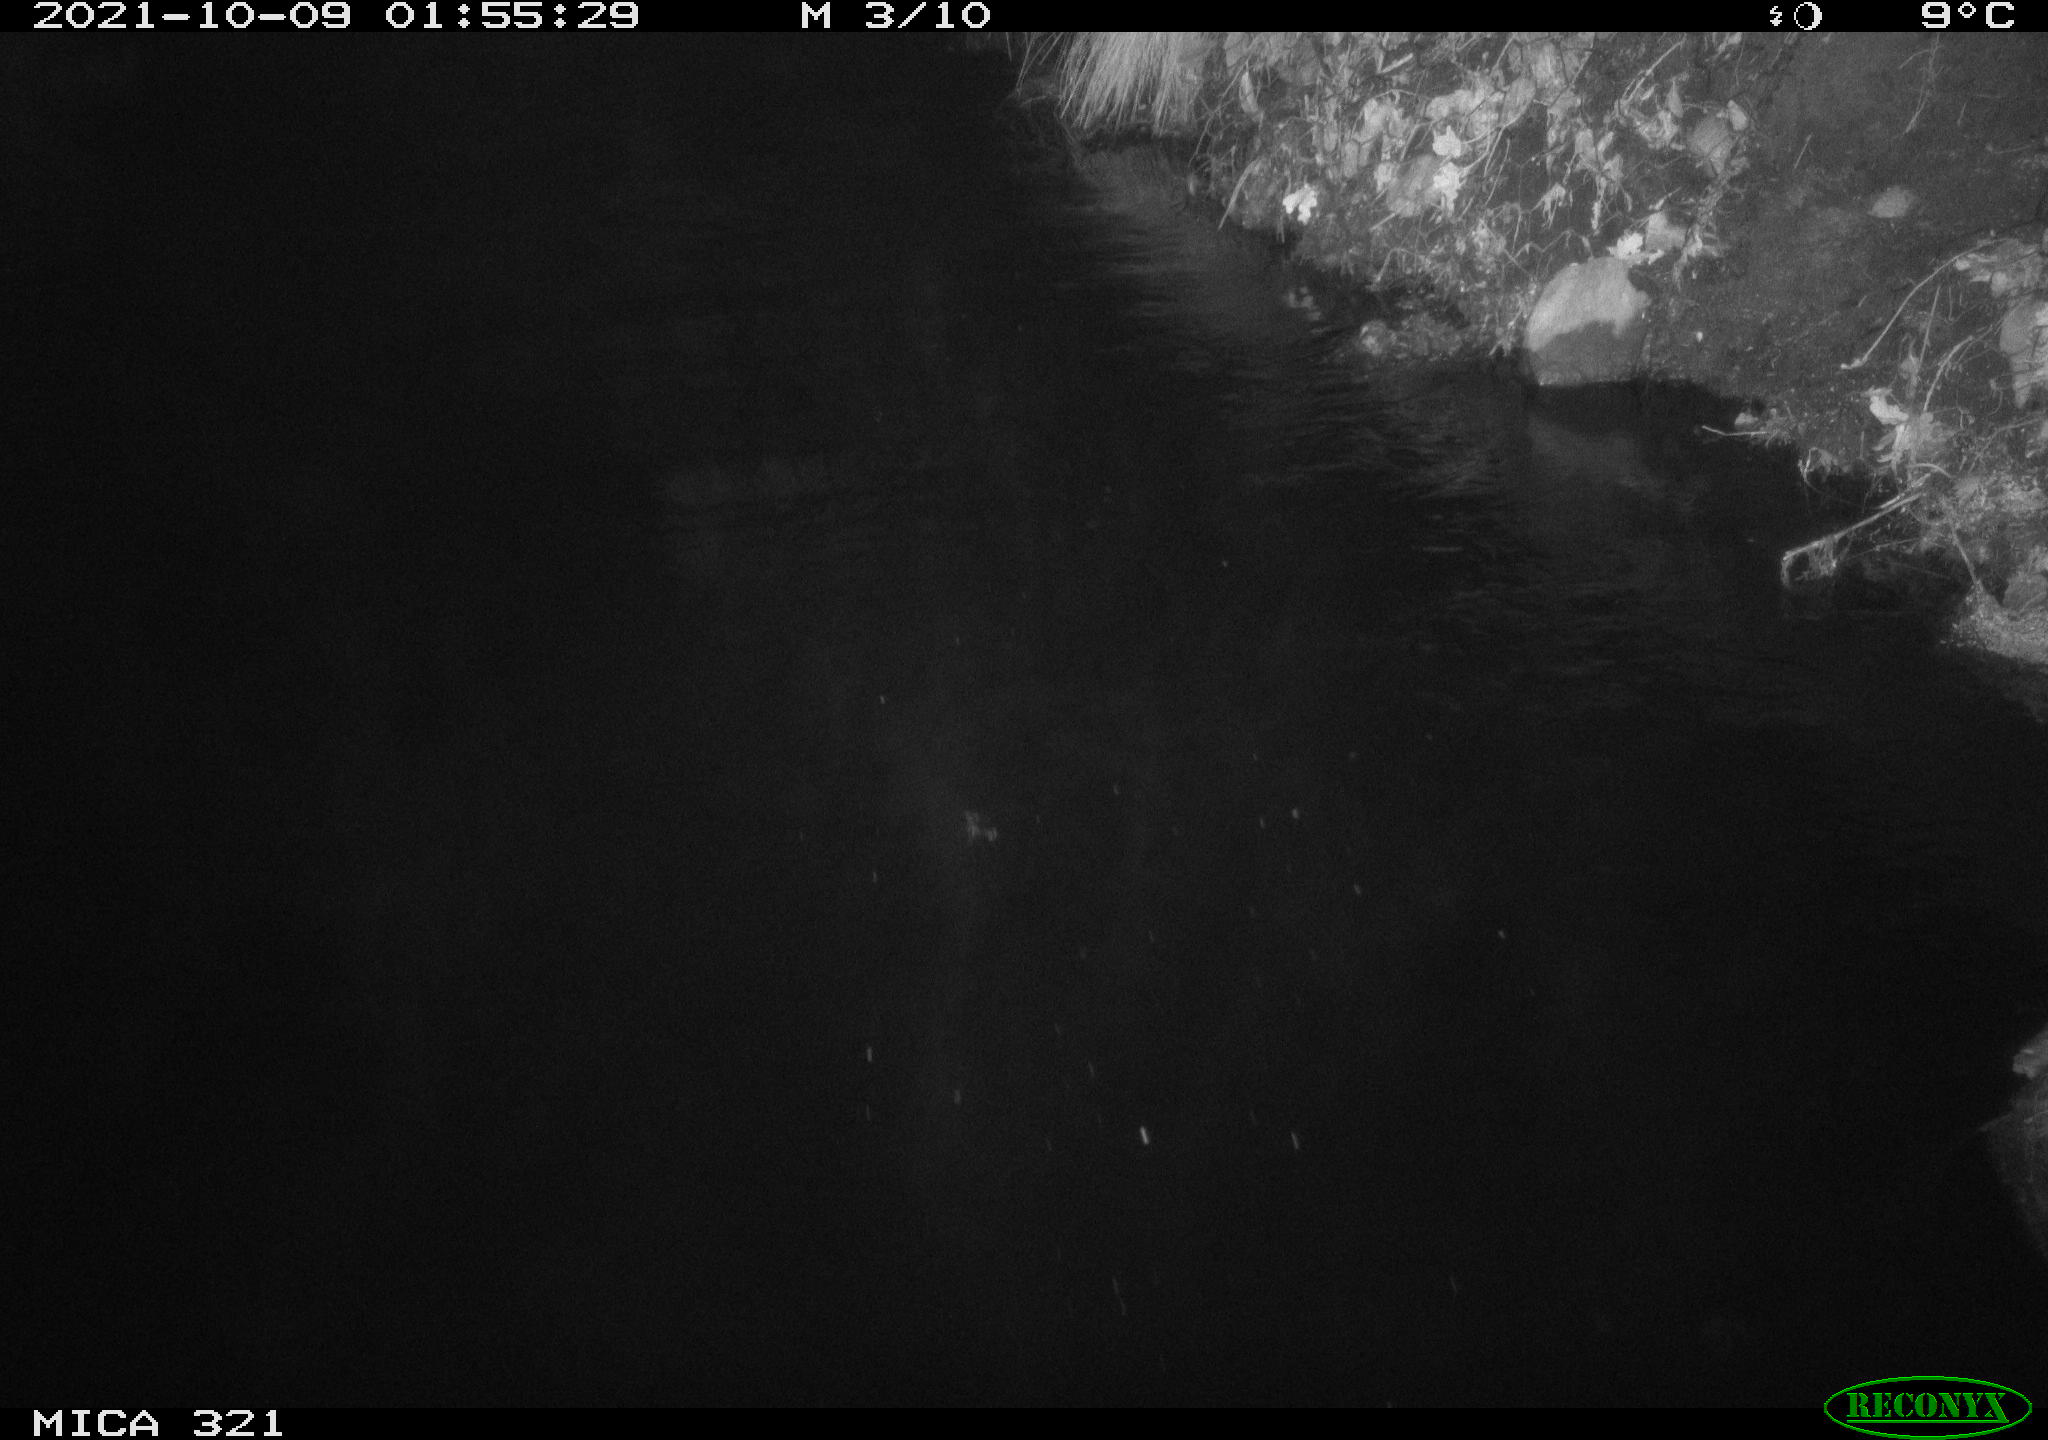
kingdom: Animalia
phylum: Chordata
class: Aves
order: Anseriformes
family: Anatidae
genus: Anas
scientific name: Anas platyrhynchos
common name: Mallard
